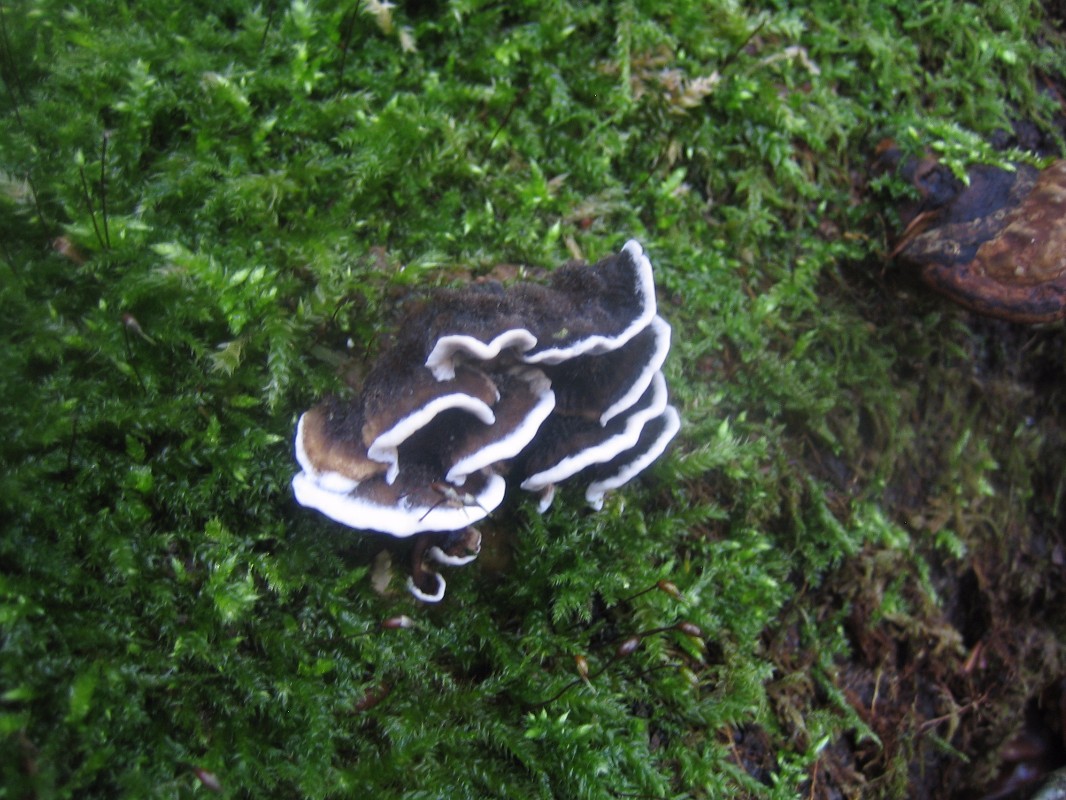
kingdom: Fungi
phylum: Basidiomycota
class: Agaricomycetes
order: Polyporales
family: Phanerochaetaceae
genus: Bjerkandera
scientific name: Bjerkandera adusta
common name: sveden sodporesvamp
